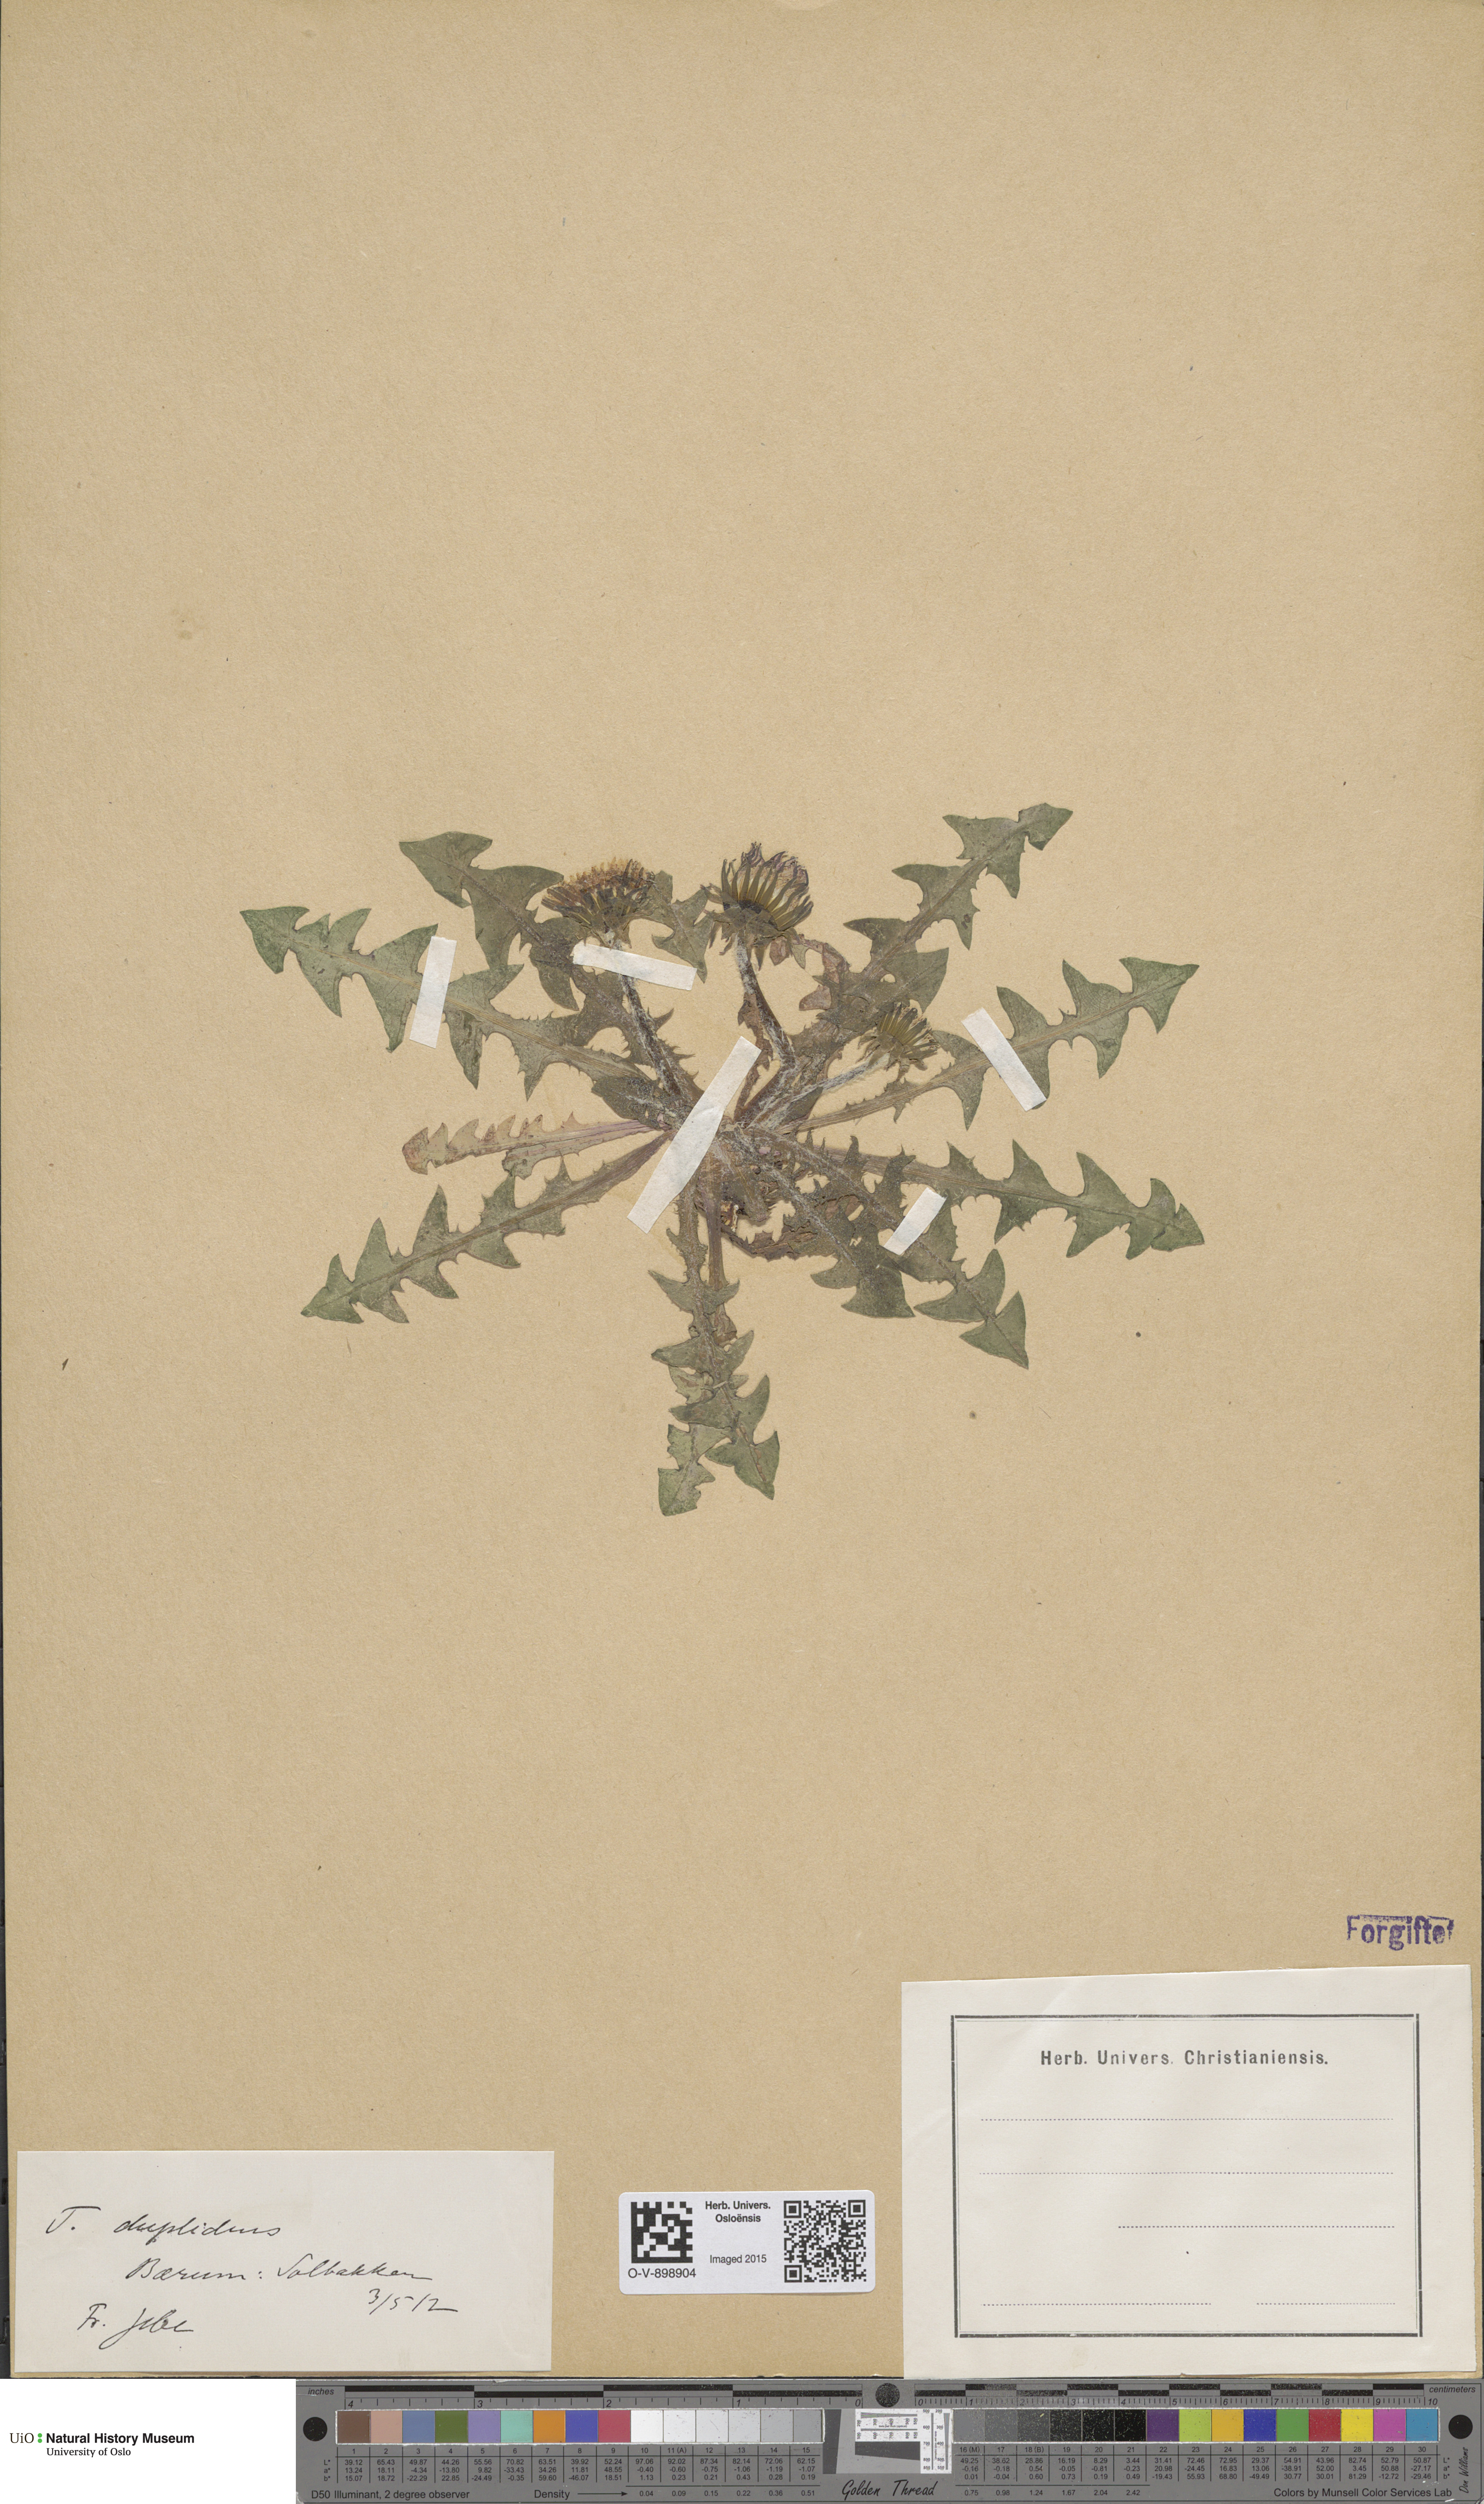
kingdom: Plantae
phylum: Tracheophyta
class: Magnoliopsida
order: Asterales
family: Asteraceae
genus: Taraxacum
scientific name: Taraxacum ostenfeldii
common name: Ostenfeld's dandelion
